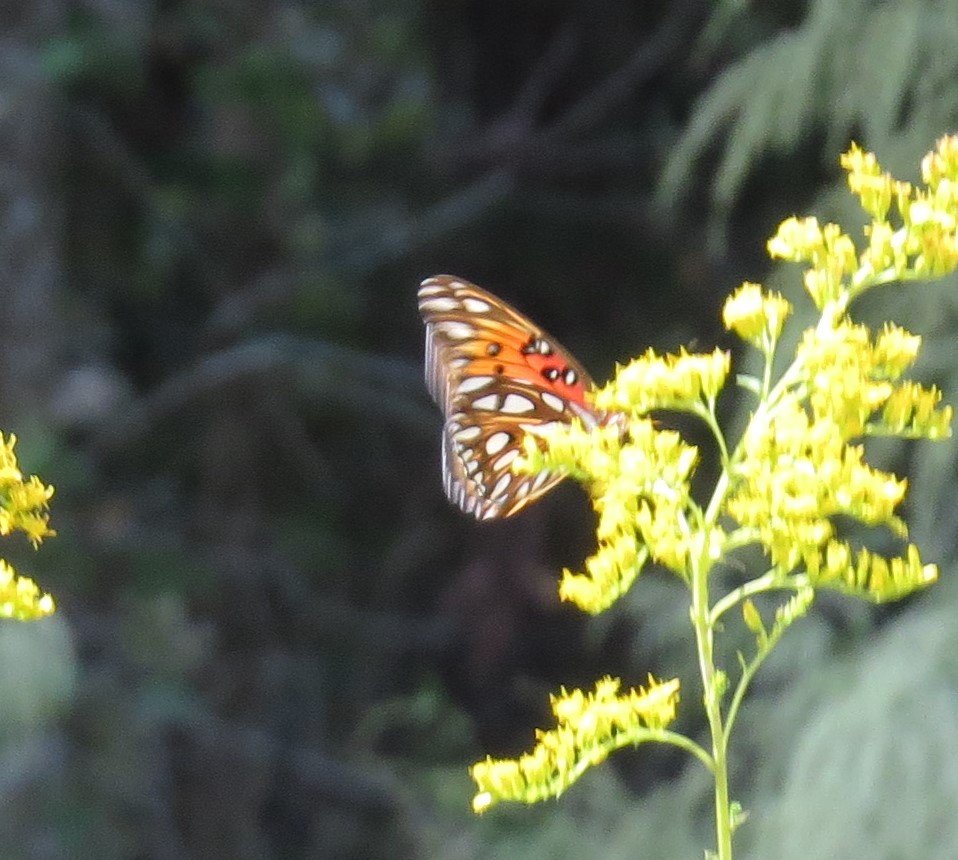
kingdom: Animalia
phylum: Arthropoda
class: Insecta
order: Lepidoptera
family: Nymphalidae
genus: Dione
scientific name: Dione vanillae
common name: Gulf Fritillary
